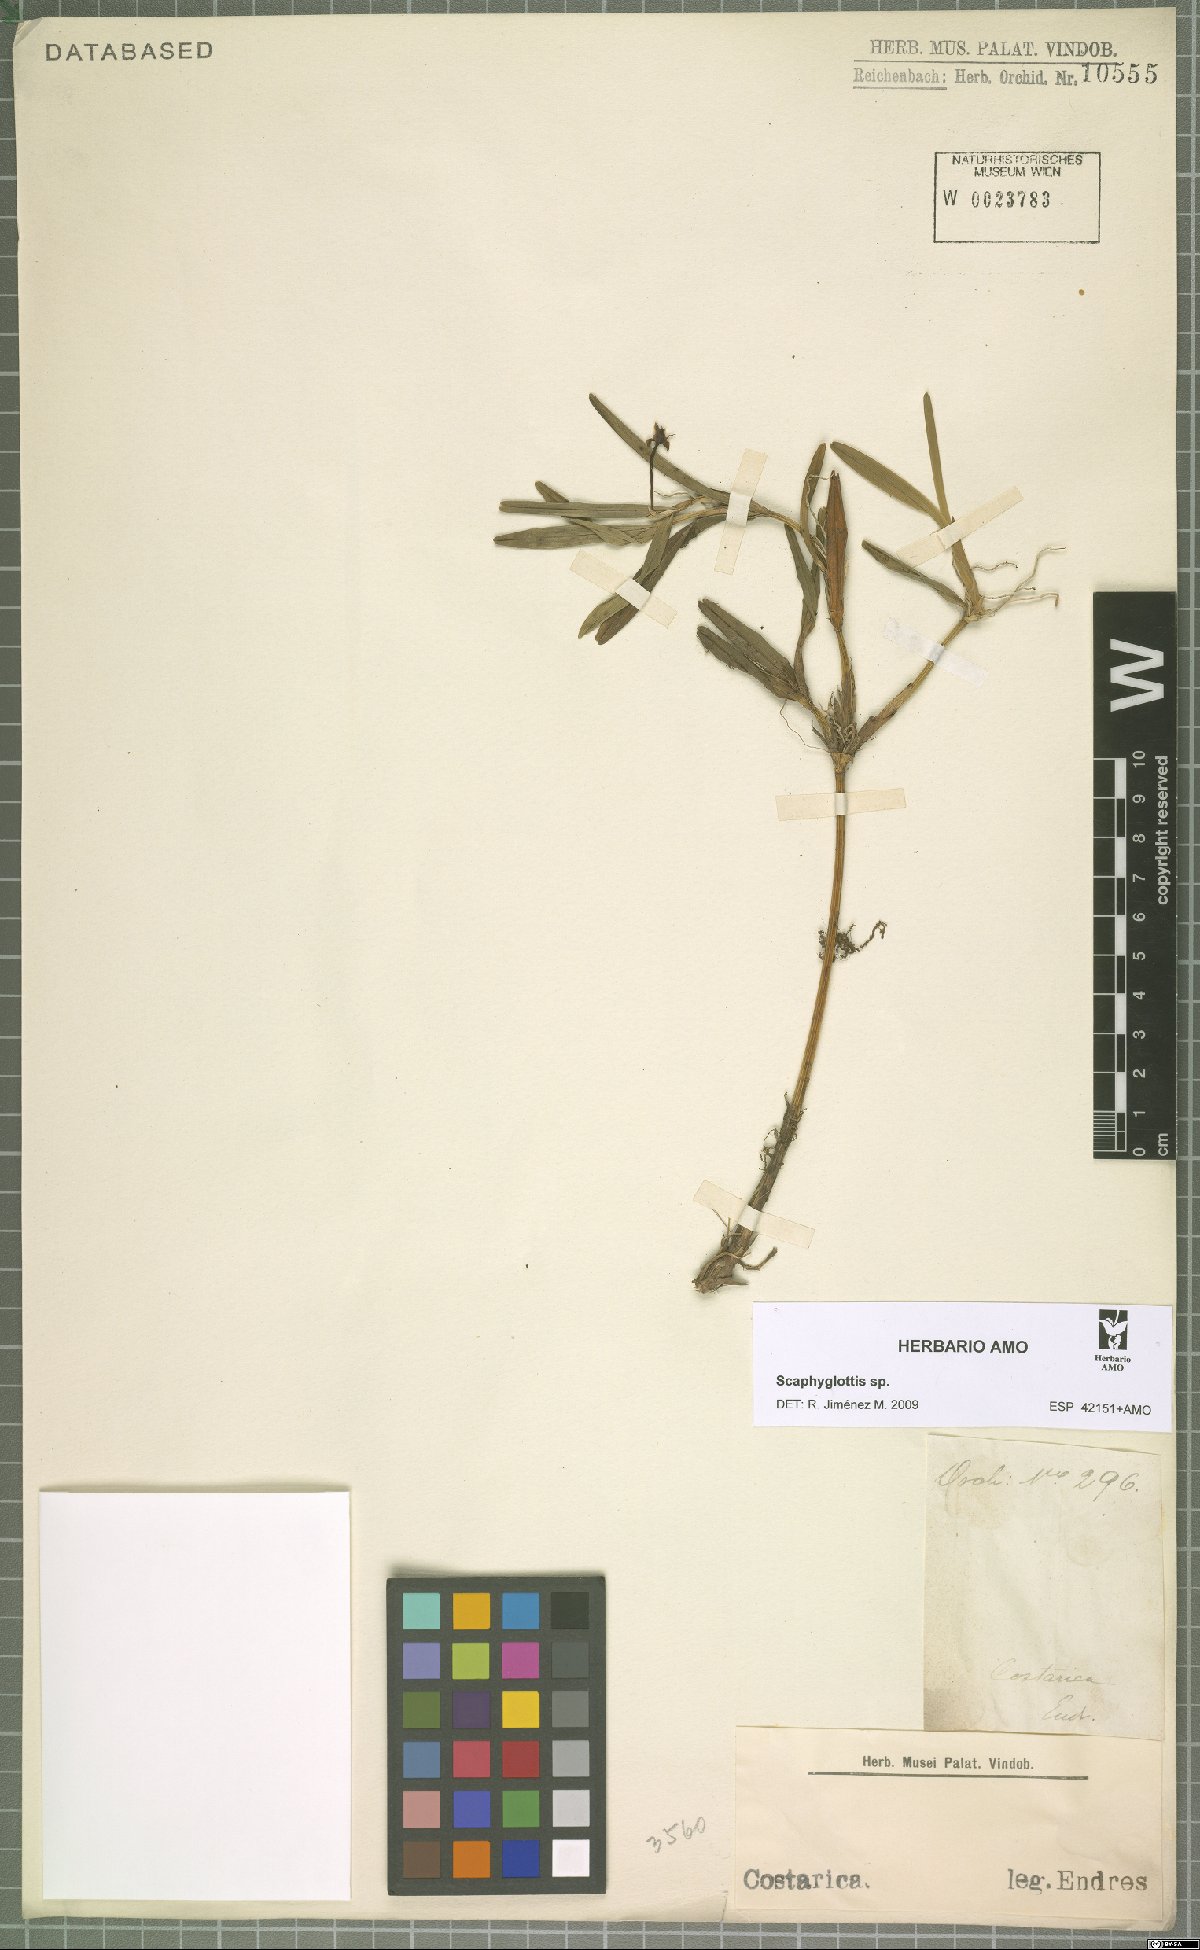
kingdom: Plantae
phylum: Tracheophyta
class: Liliopsida
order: Asparagales
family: Orchidaceae
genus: Scaphyglottis
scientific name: Scaphyglottis
